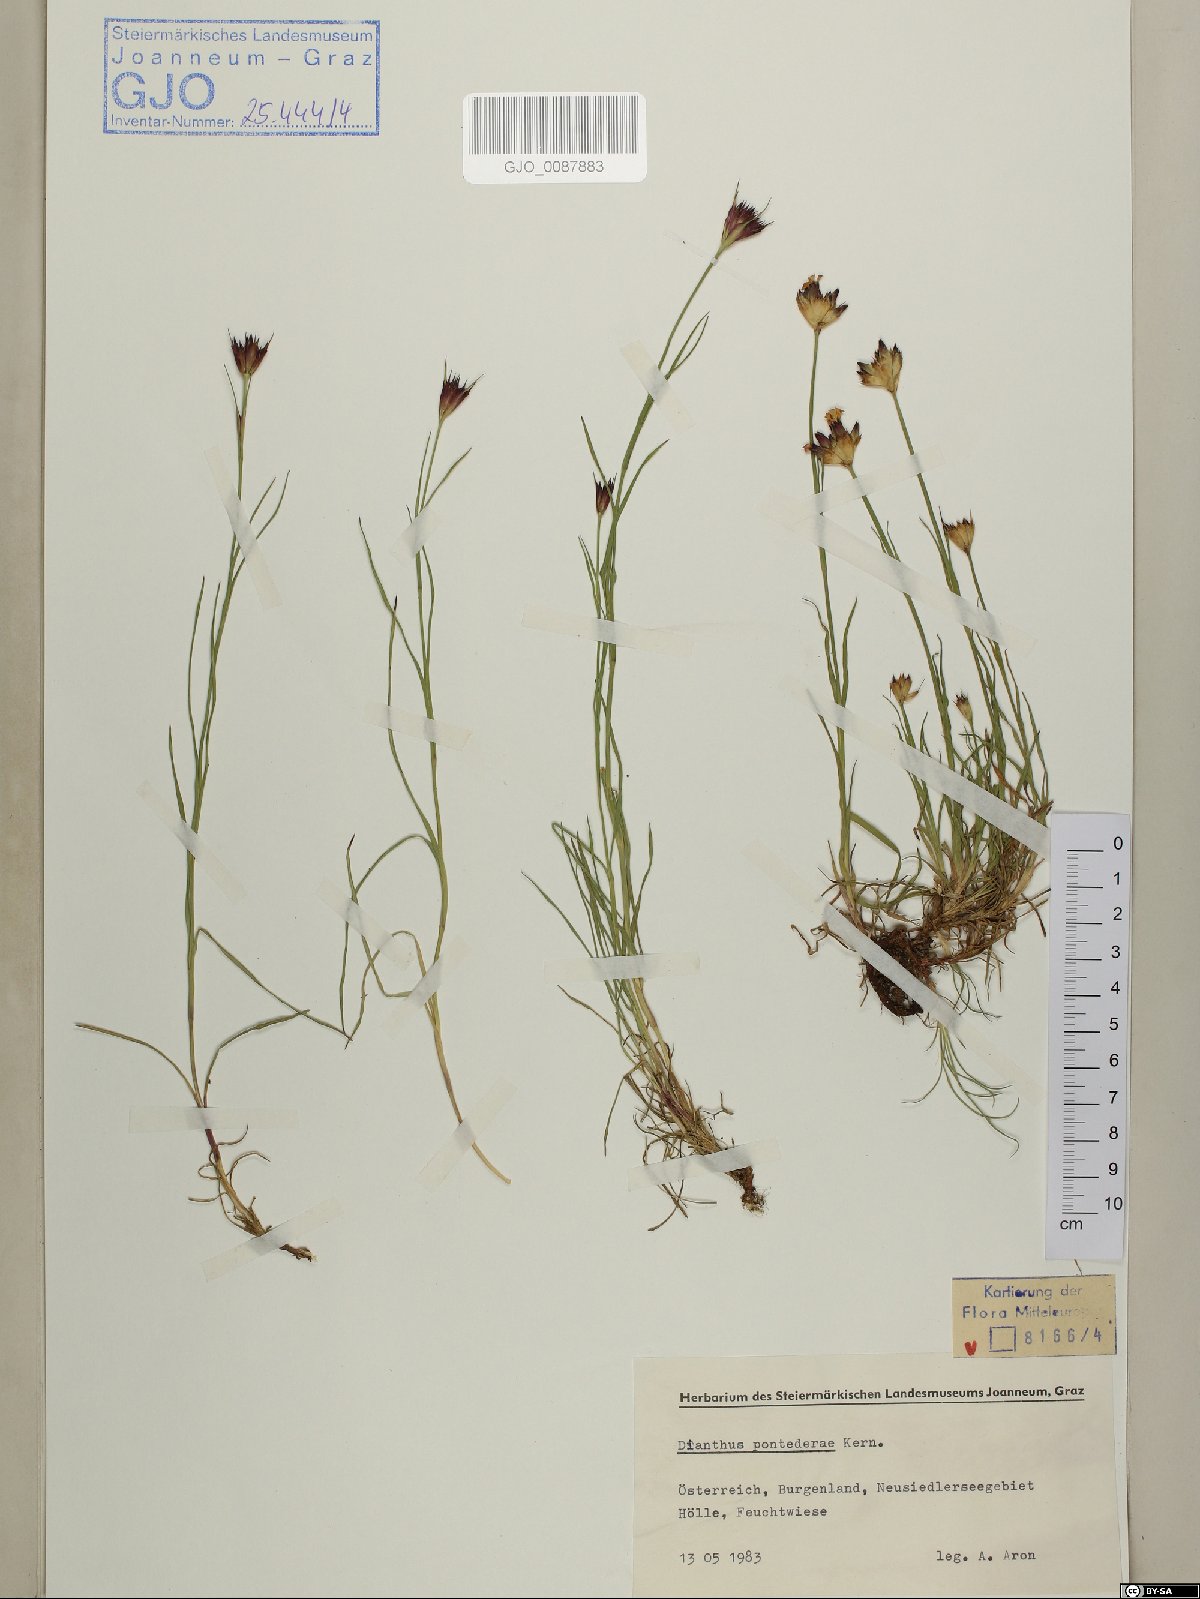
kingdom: Plantae
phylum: Tracheophyta
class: Magnoliopsida
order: Caryophyllales
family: Caryophyllaceae
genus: Dianthus
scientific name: Dianthus pontederae
